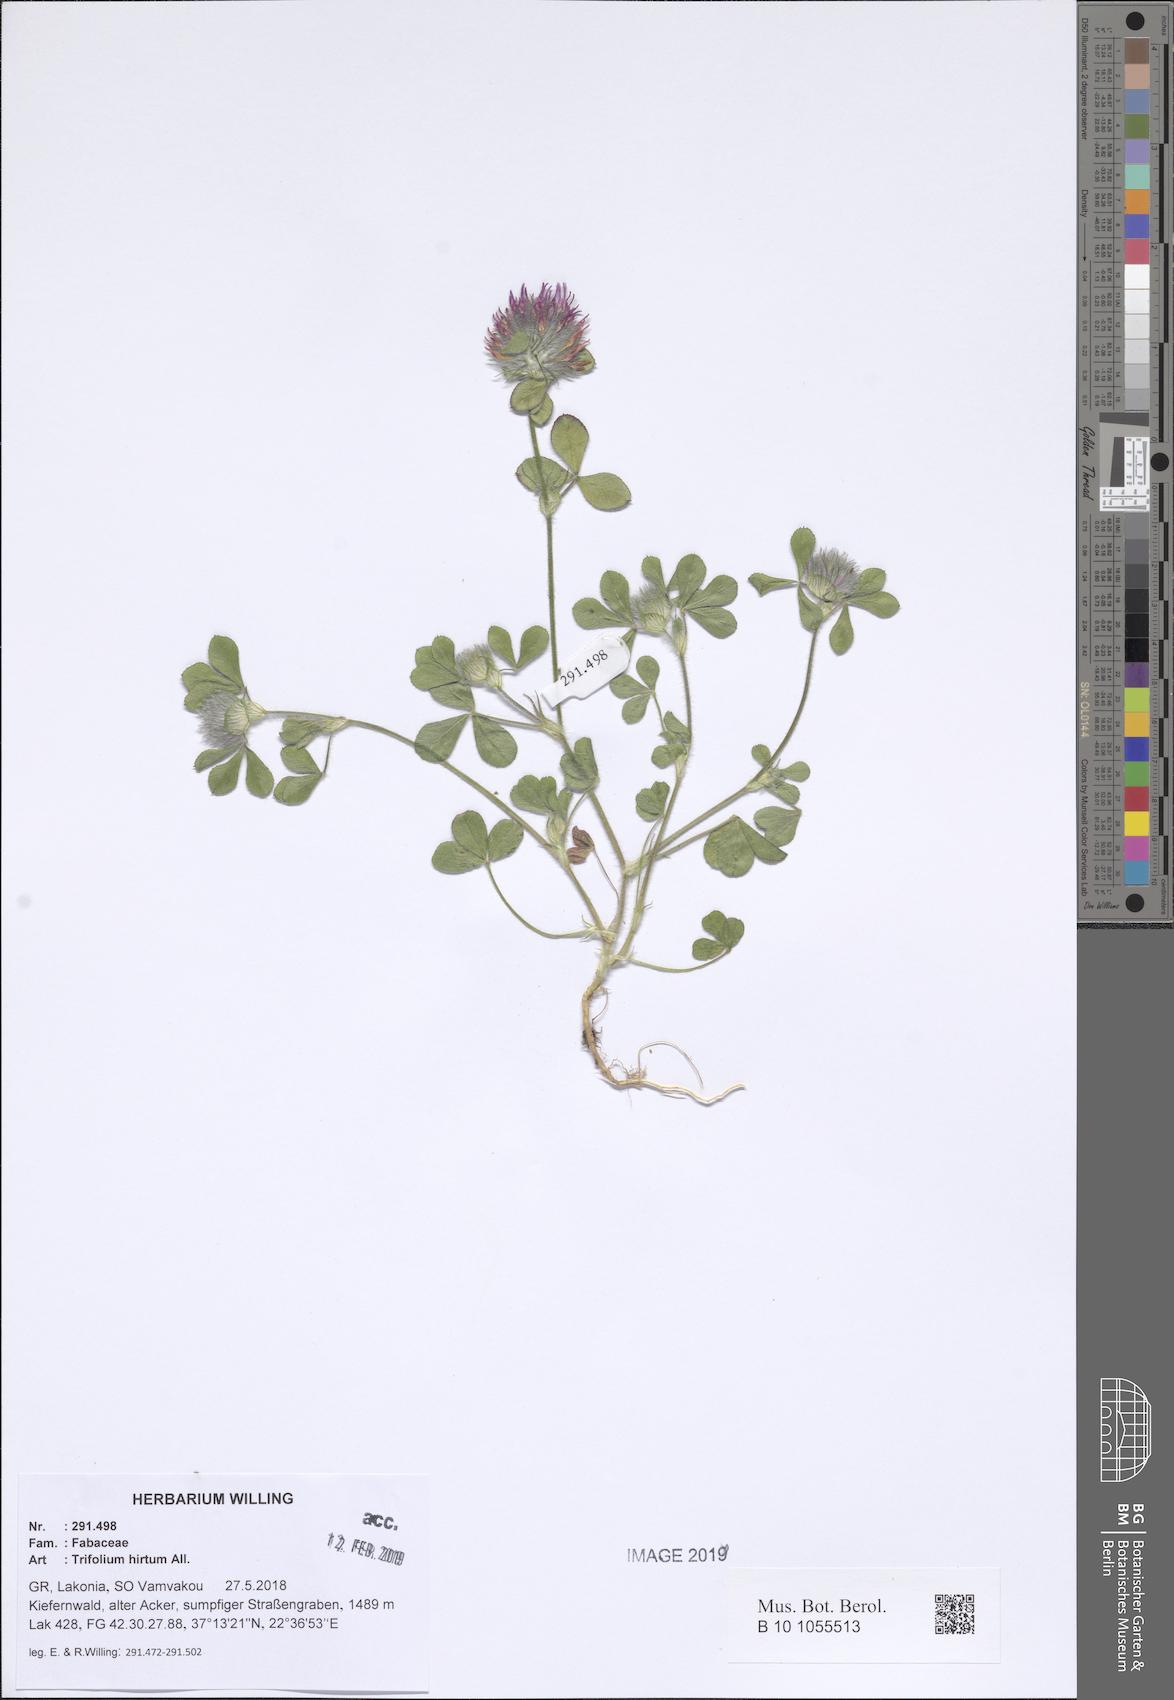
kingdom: Plantae
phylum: Tracheophyta
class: Magnoliopsida
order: Fabales
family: Fabaceae
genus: Trifolium
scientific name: Trifolium hirtum
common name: Rose clover
